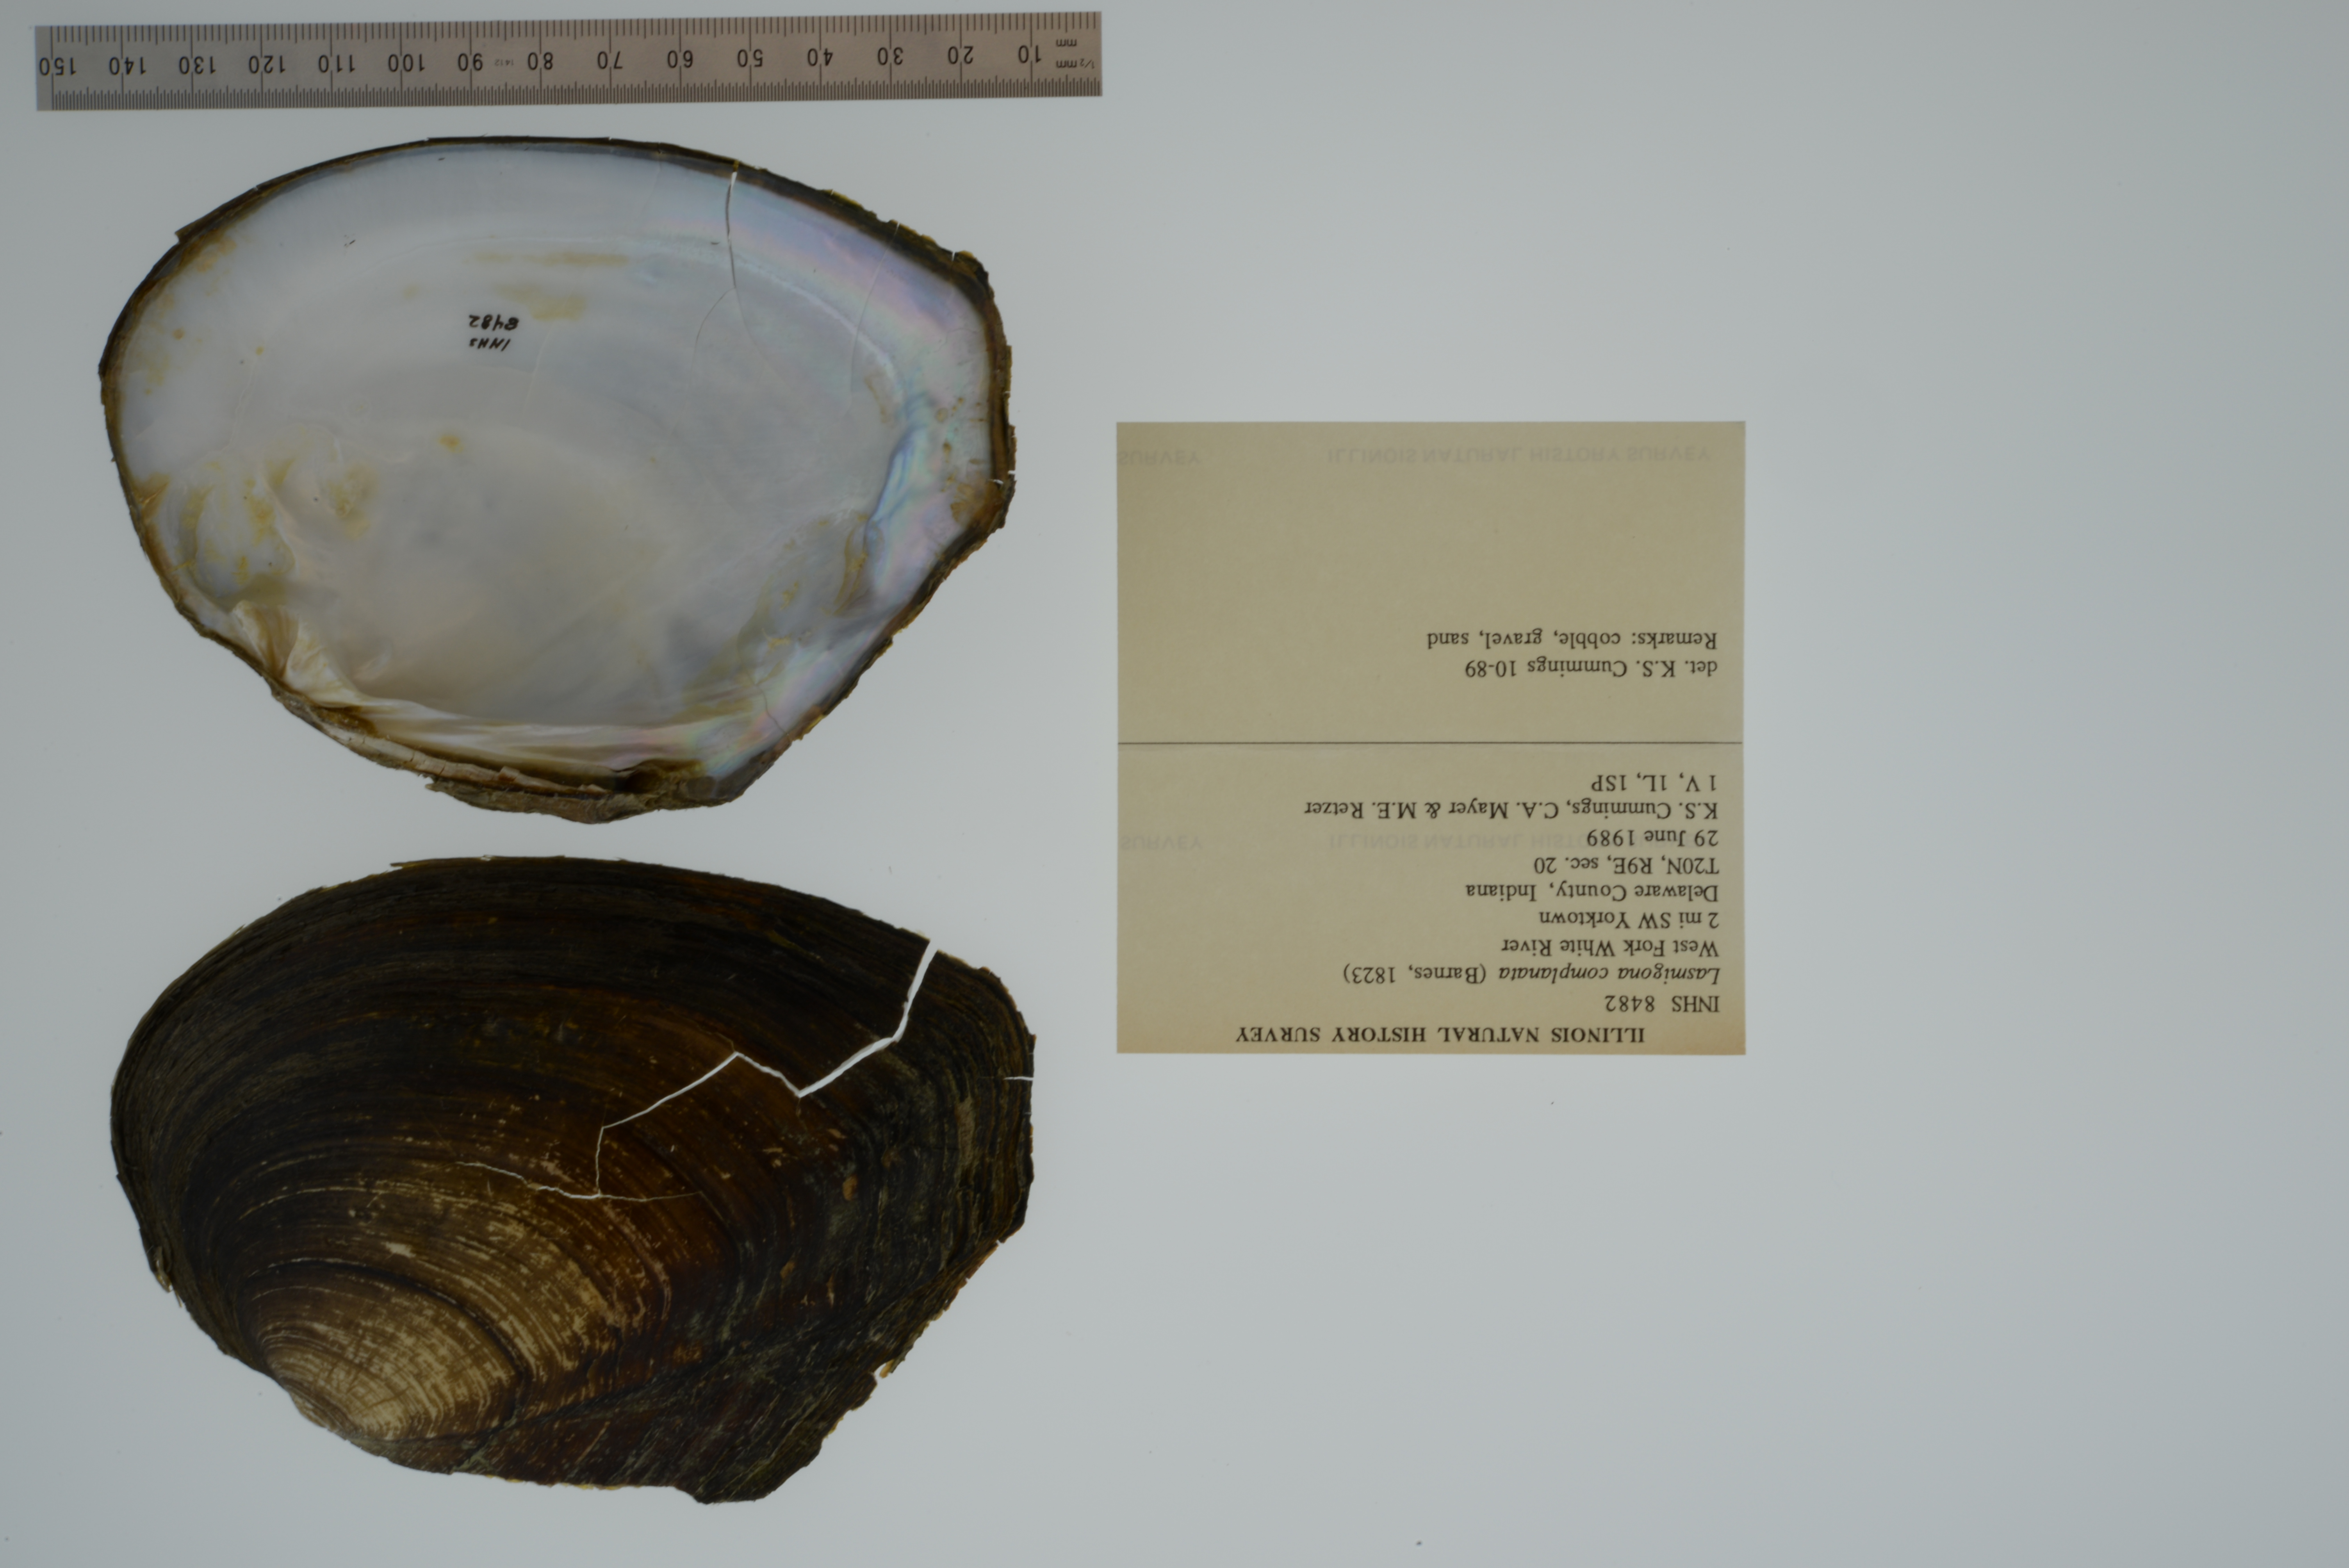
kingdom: Animalia
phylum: Mollusca
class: Bivalvia
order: Unionida
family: Unionidae
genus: Lasmigona
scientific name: Lasmigona complanata
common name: White heelsplitter
